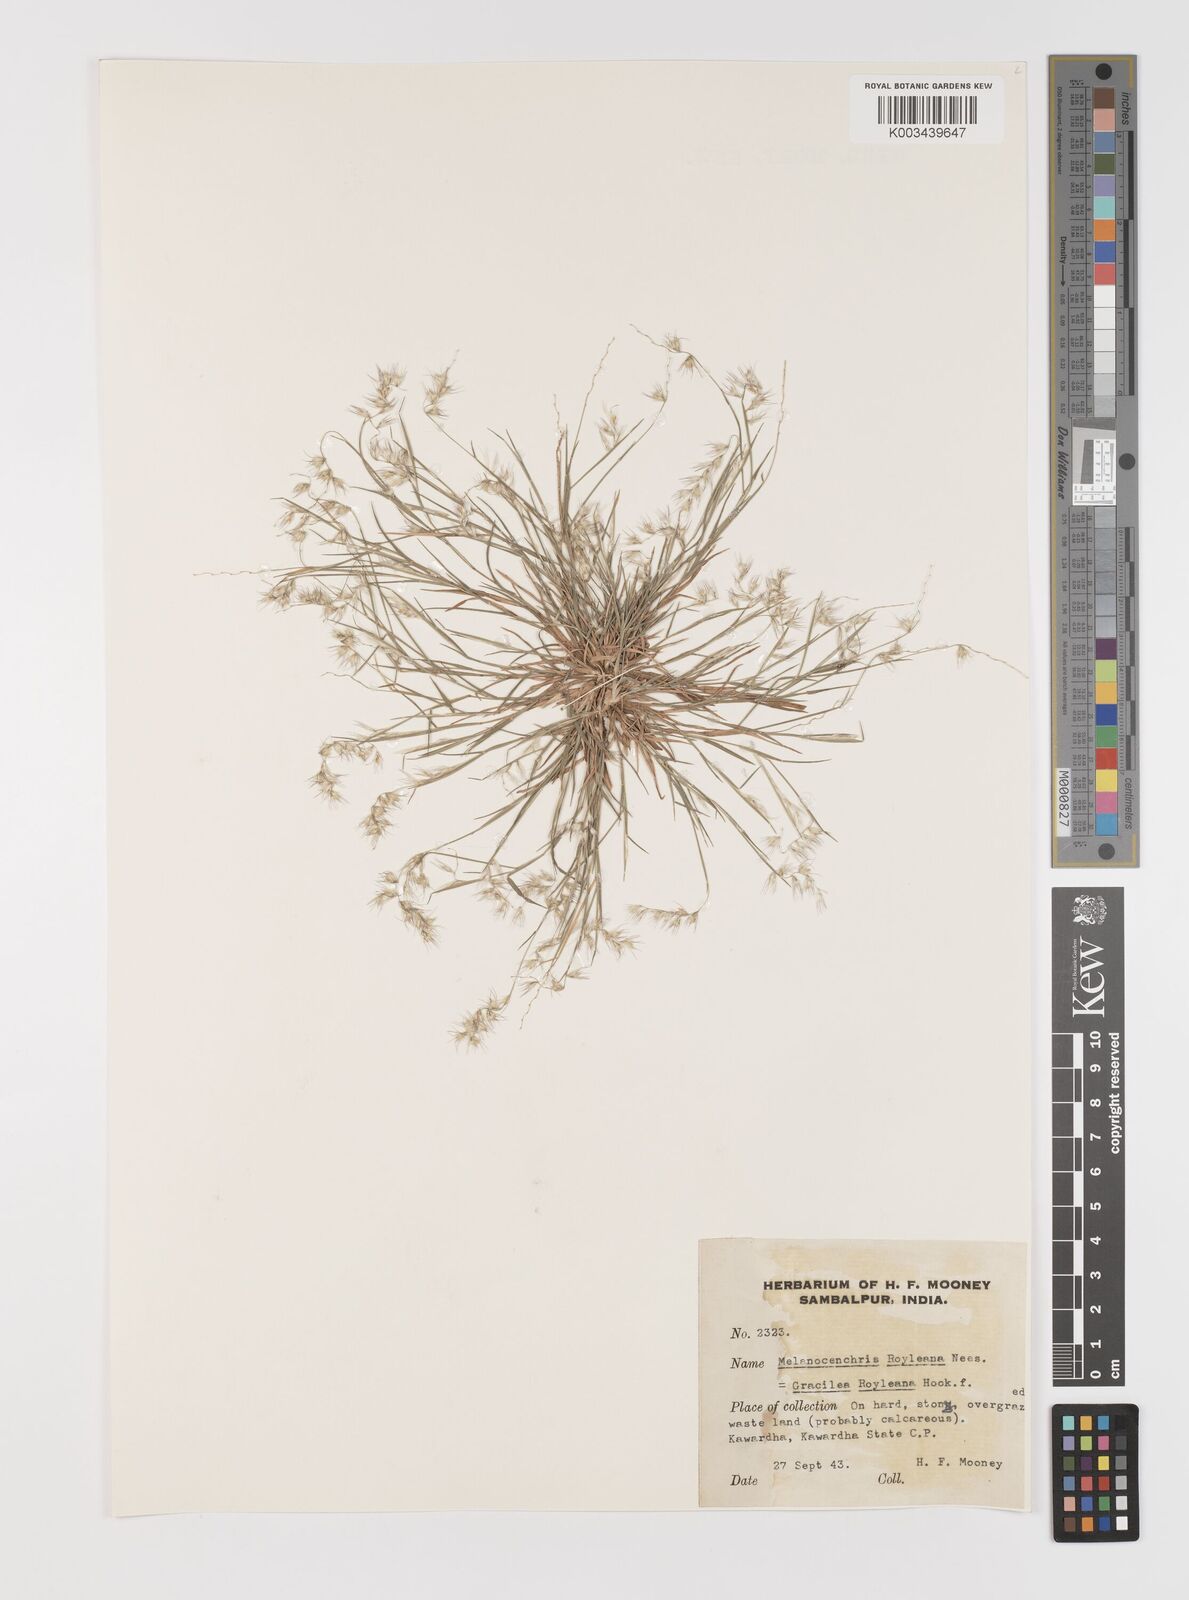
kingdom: Plantae
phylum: Tracheophyta
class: Liliopsida
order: Poales
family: Poaceae
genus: Melanocenchris
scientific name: Melanocenchris jacquemontii
